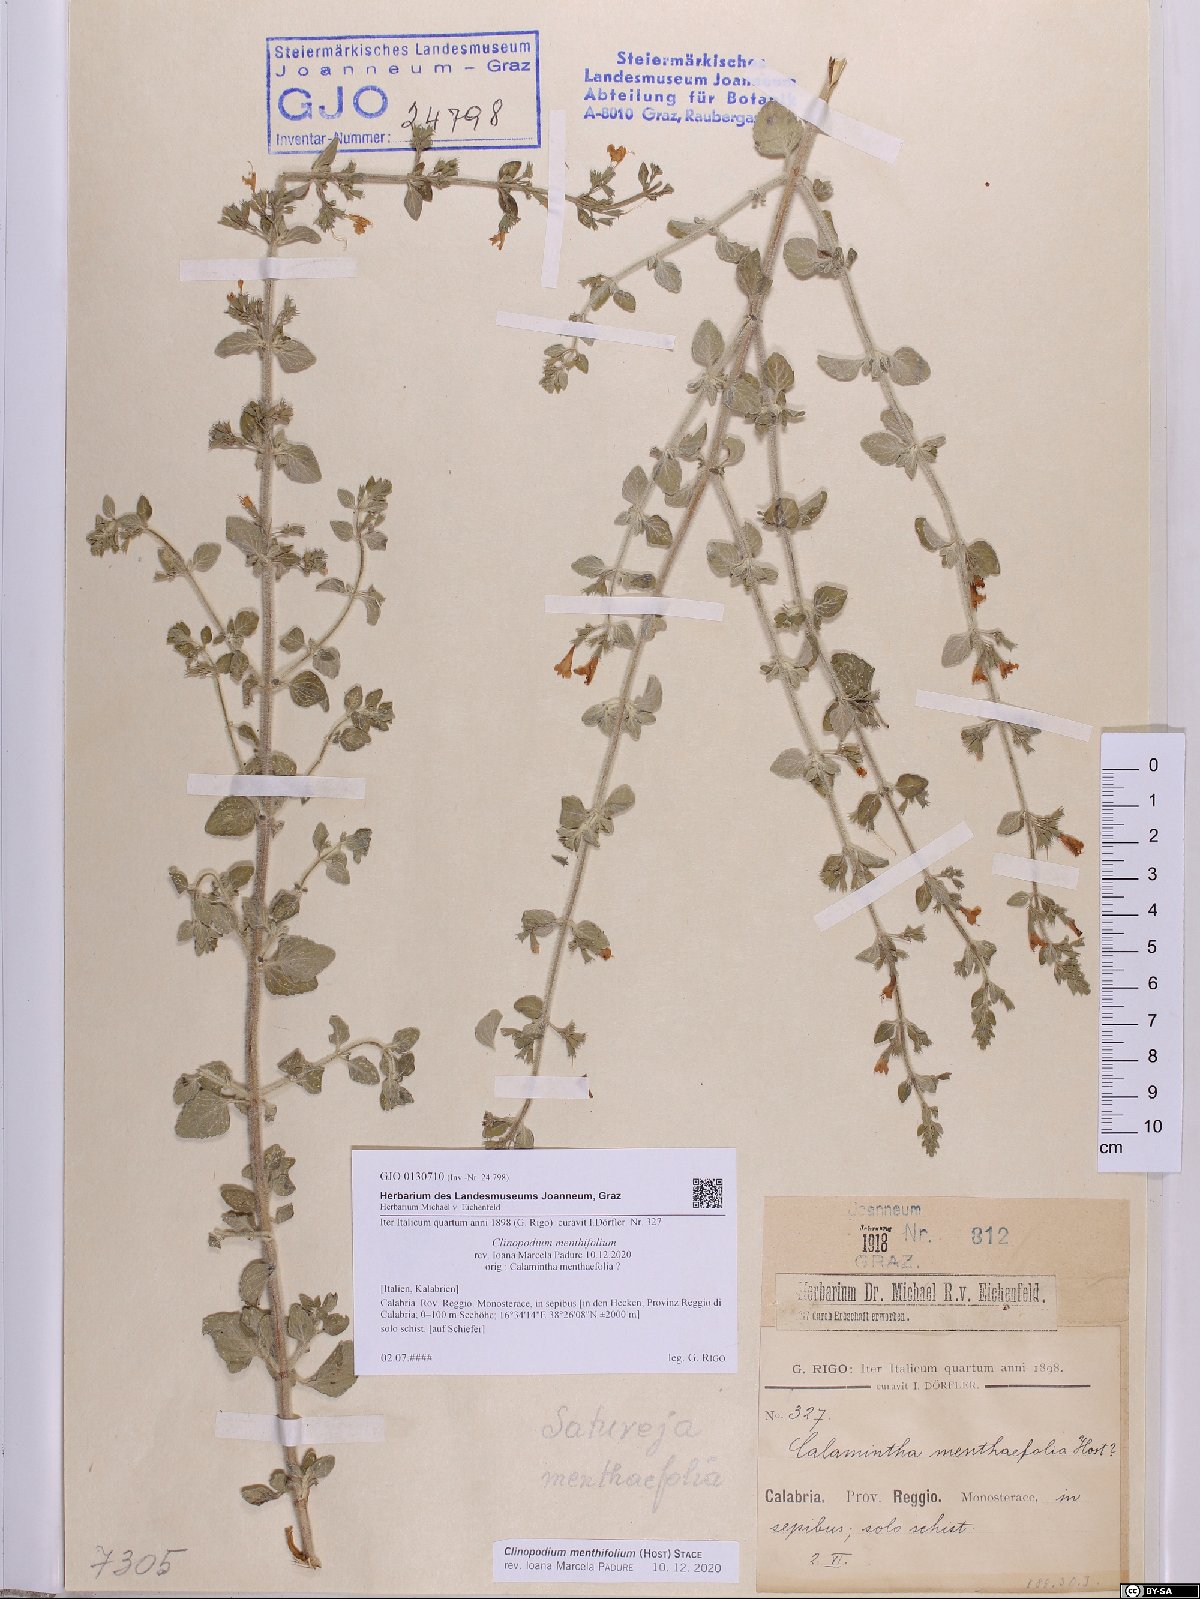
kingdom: Plantae
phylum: Tracheophyta
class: Magnoliopsida
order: Lamiales
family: Lamiaceae
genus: Clinopodium
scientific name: Clinopodium menthifolium
